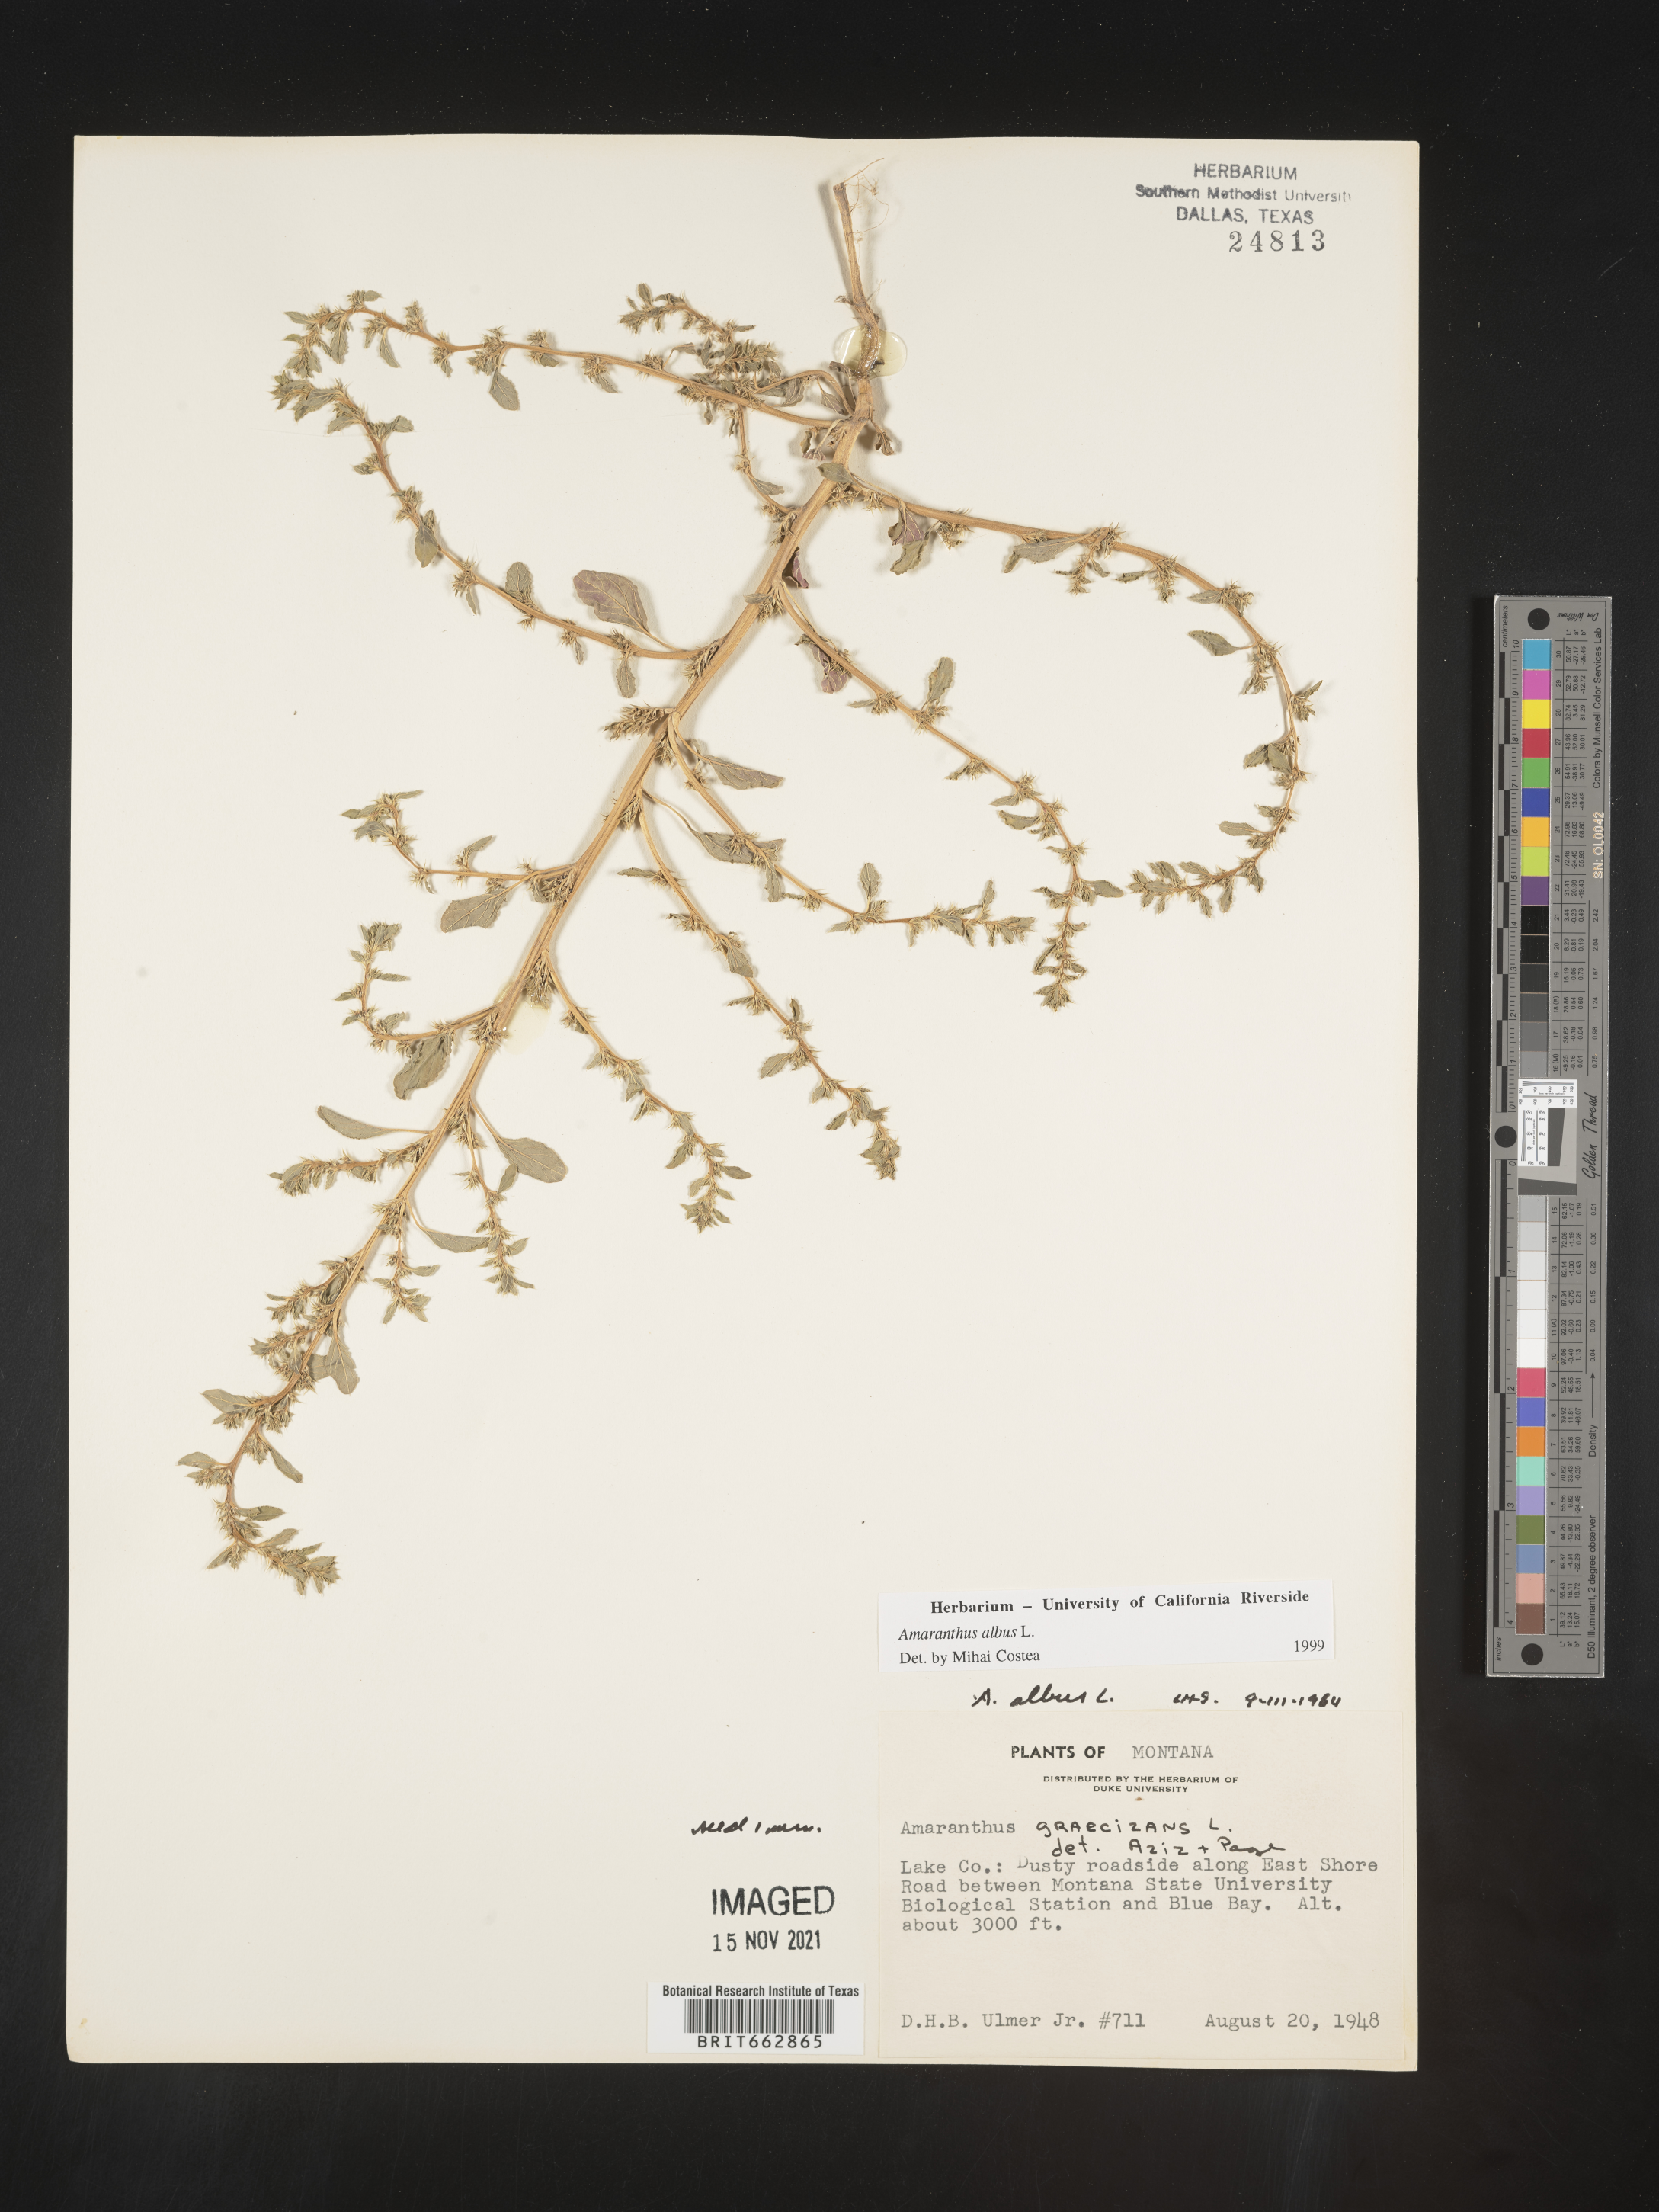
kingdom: Plantae
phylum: Tracheophyta
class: Magnoliopsida
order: Caryophyllales
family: Amaranthaceae
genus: Amaranthus
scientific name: Amaranthus albus
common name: White pigweed
